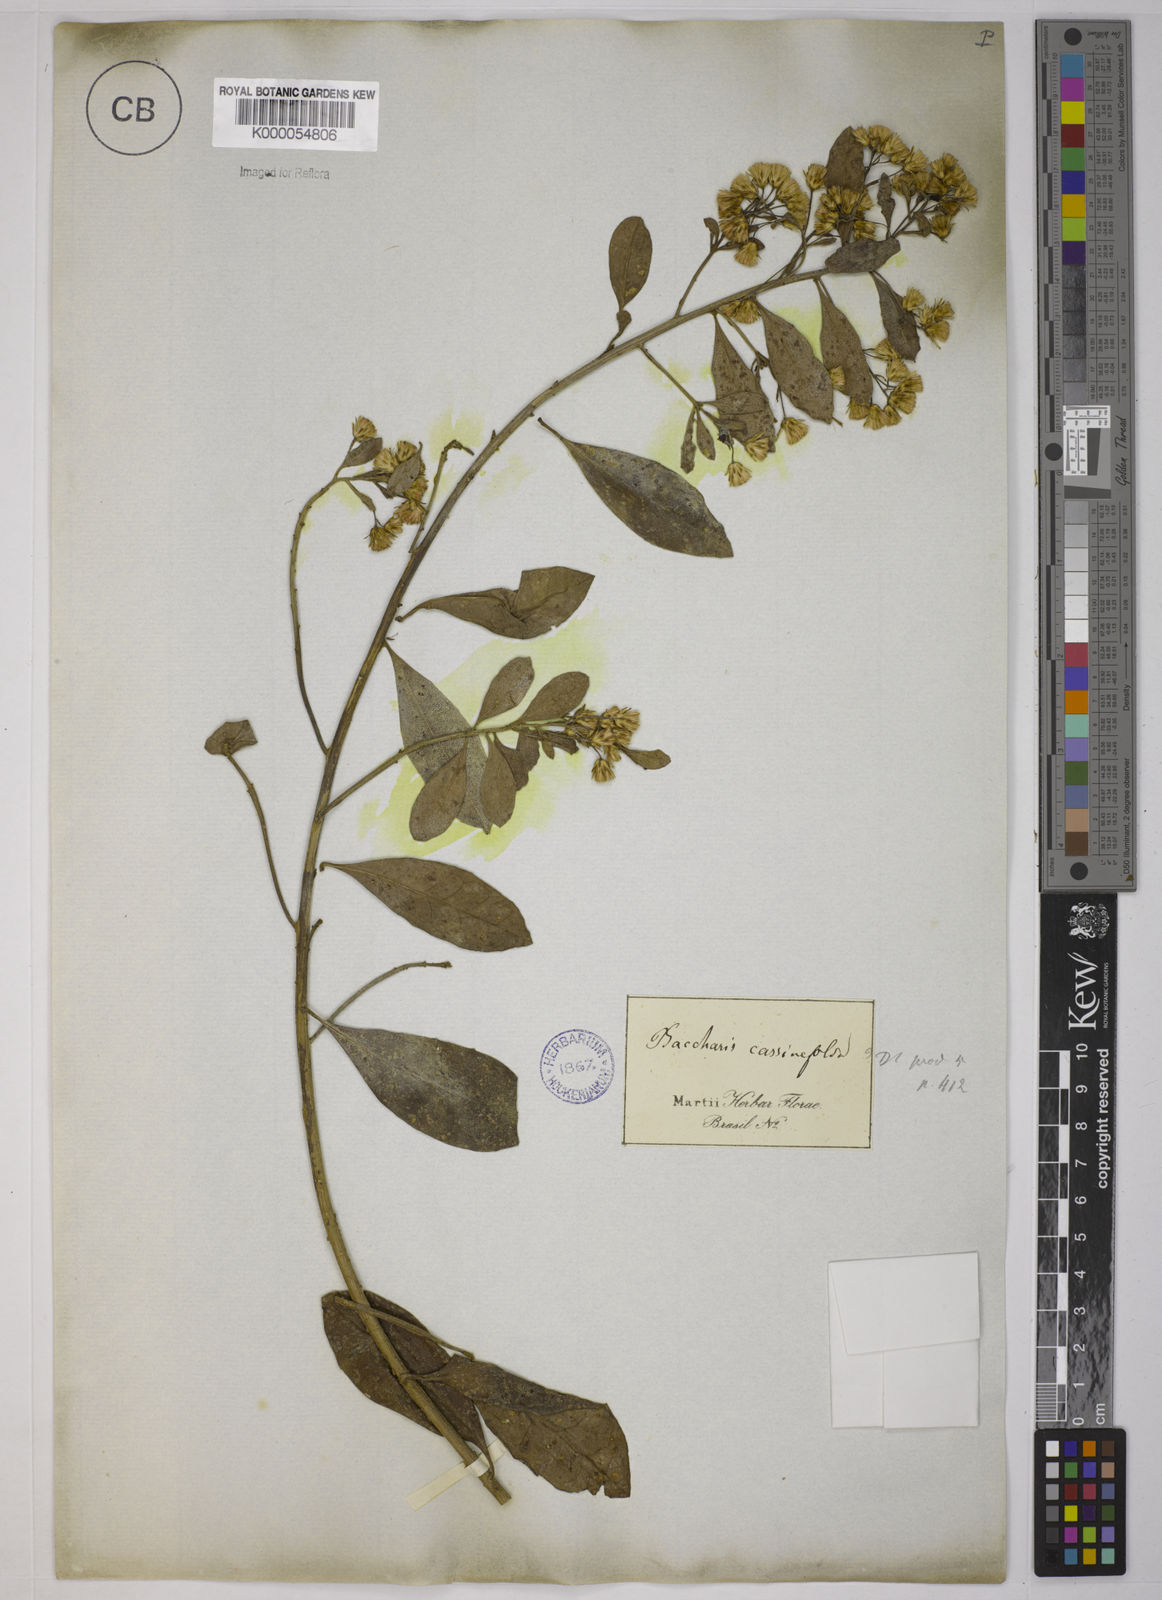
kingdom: Plantae
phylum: Tracheophyta
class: Magnoliopsida
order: Asterales
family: Asteraceae
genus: Baccharis
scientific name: Baccharis singularis
